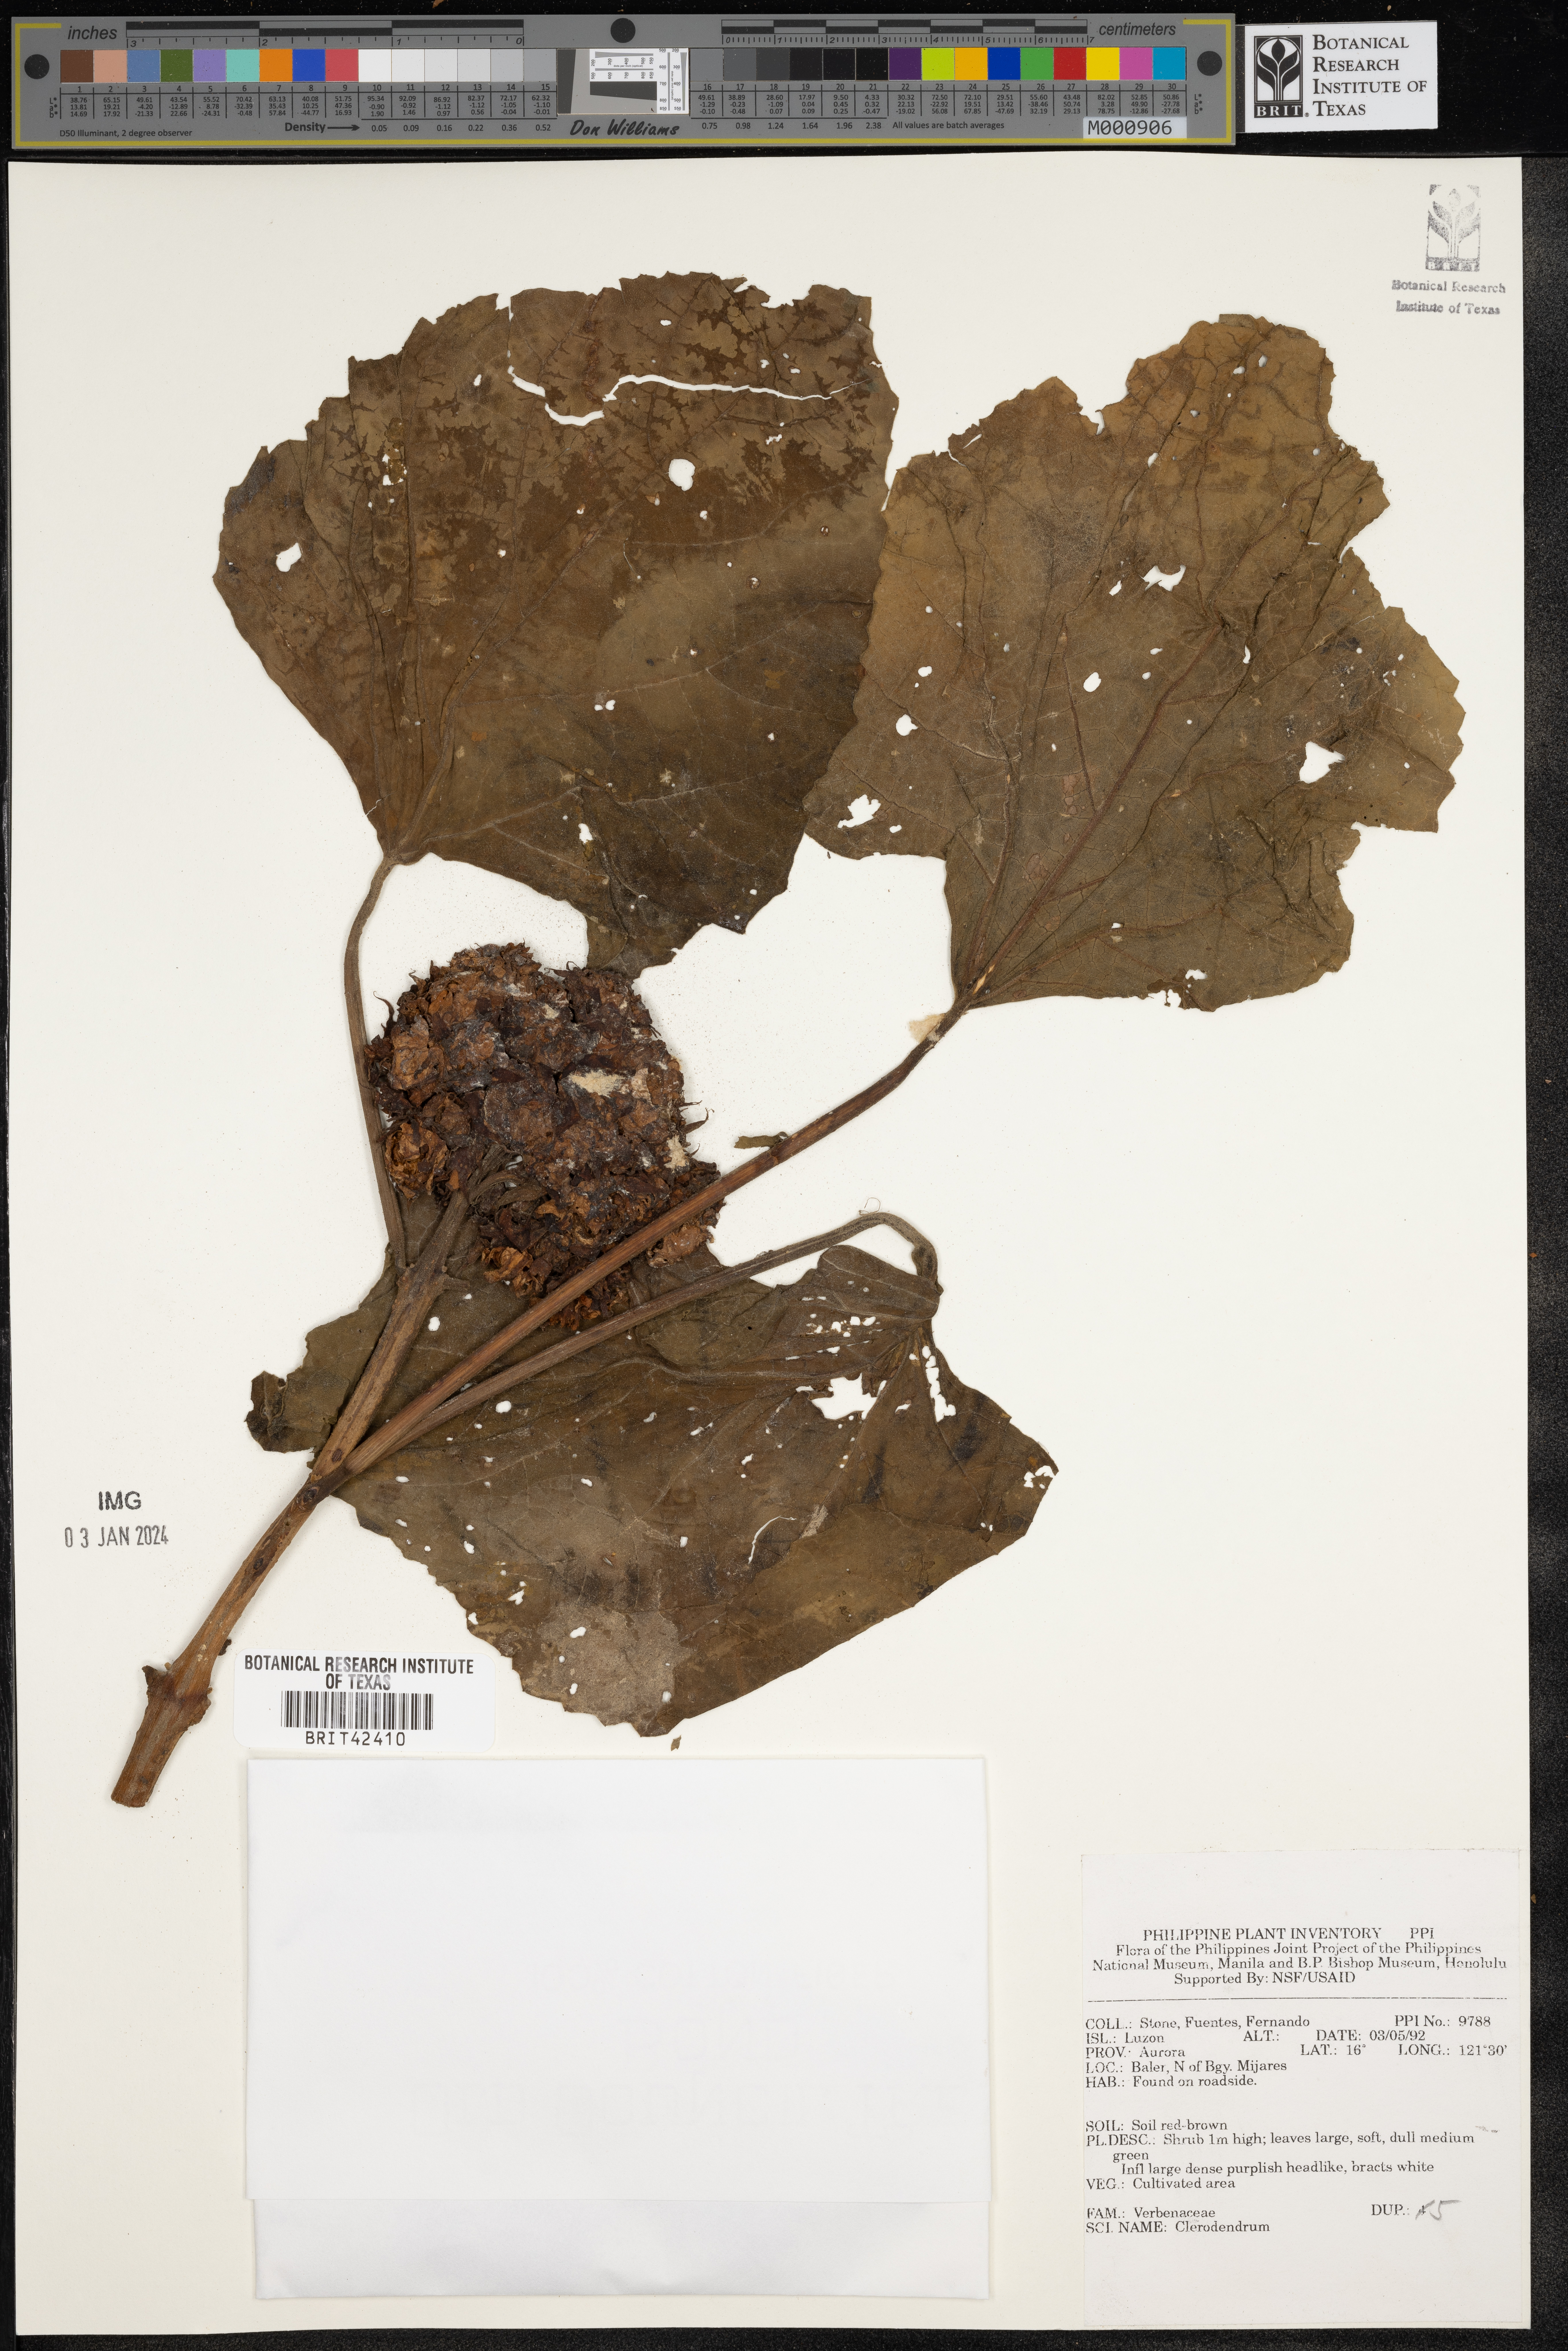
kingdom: Plantae
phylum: Tracheophyta
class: Magnoliopsida
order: Lamiales
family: Lamiaceae
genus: Clerodendrum
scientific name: Clerodendrum
